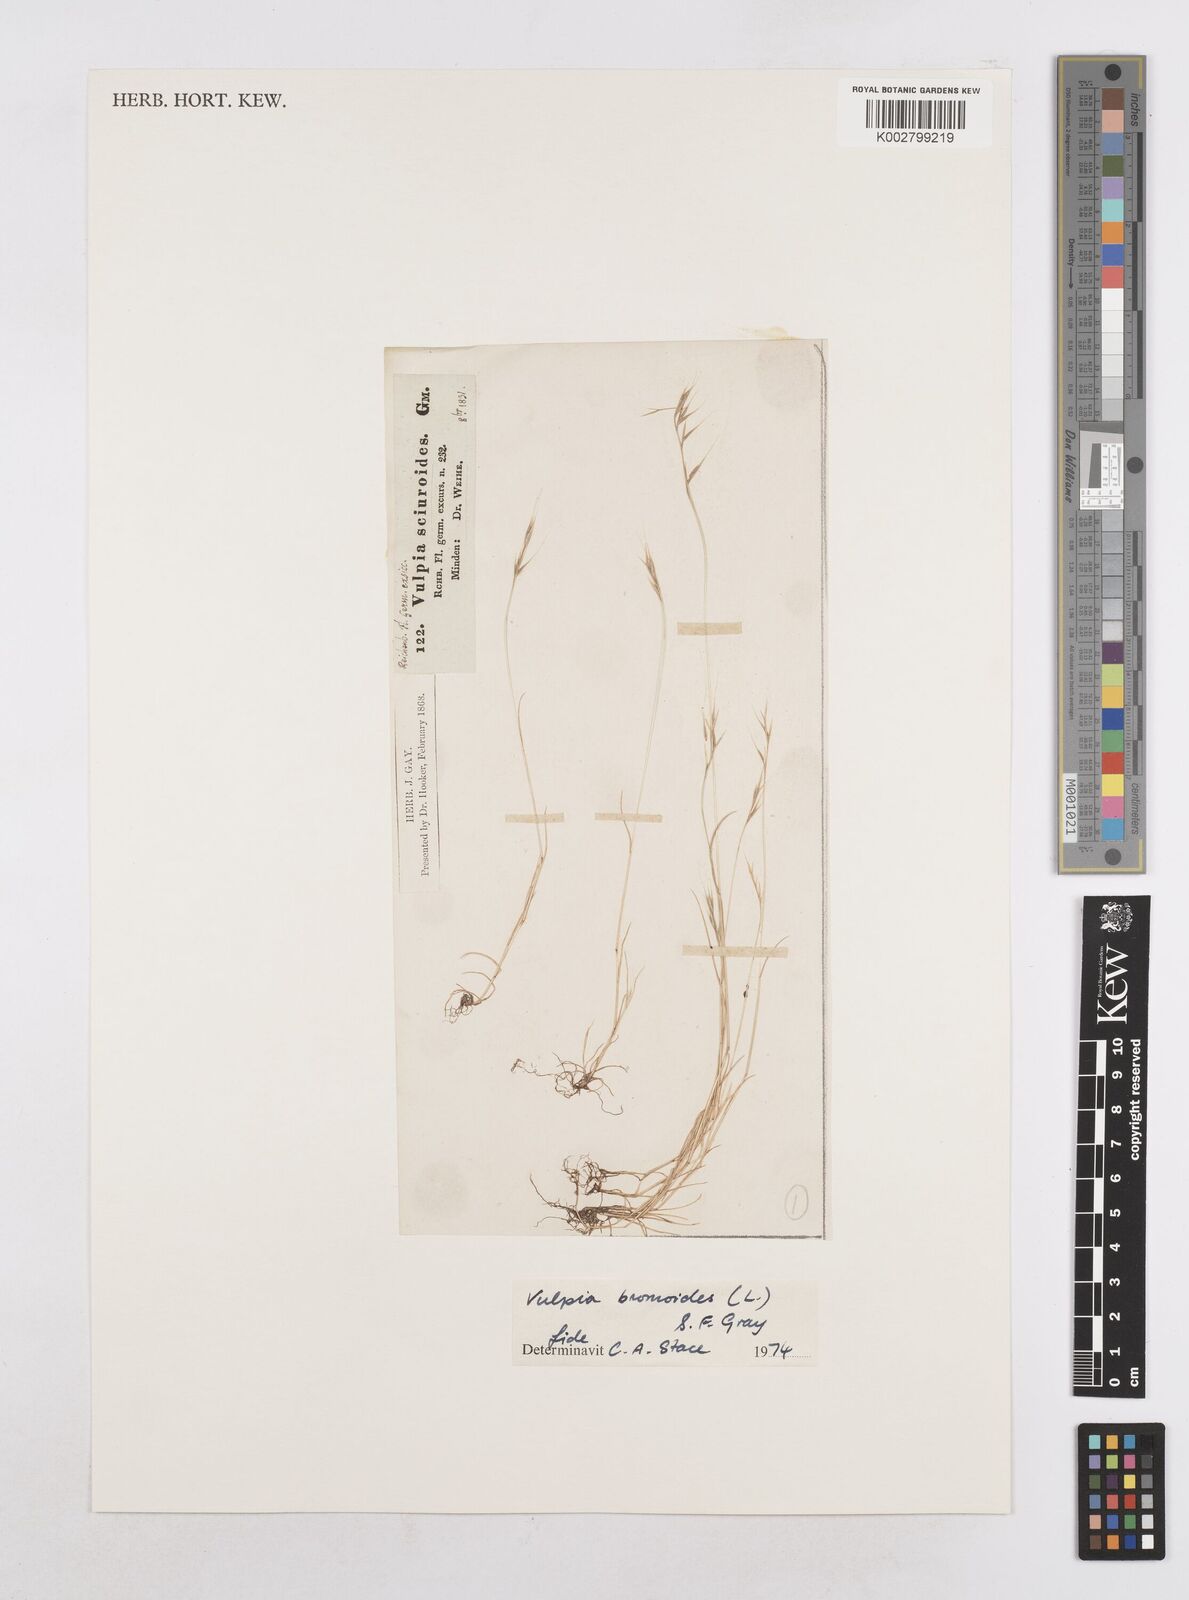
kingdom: Plantae
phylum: Tracheophyta
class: Liliopsida
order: Poales
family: Poaceae
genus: Festuca
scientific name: Festuca bromoides
